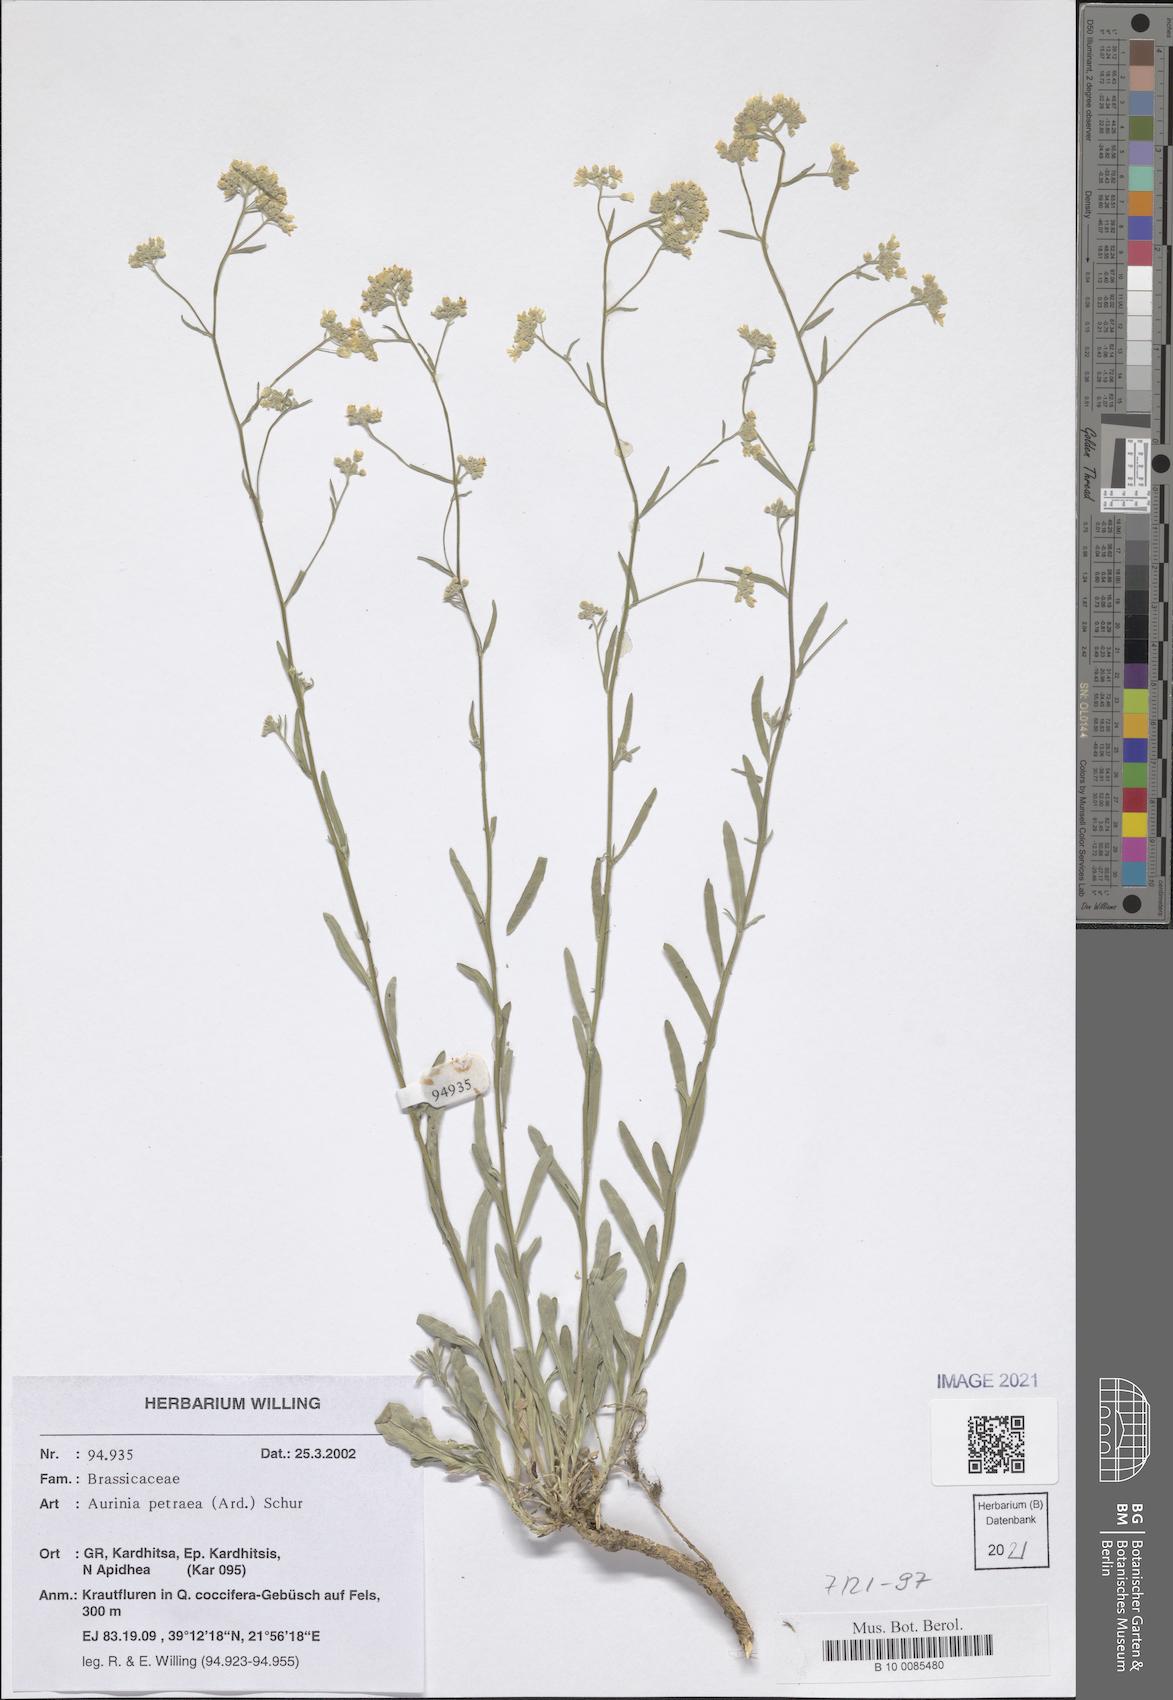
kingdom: Plantae
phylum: Tracheophyta
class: Magnoliopsida
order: Brassicales
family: Brassicaceae
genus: Aurinia
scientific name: Aurinia petraea
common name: Goldentuft
